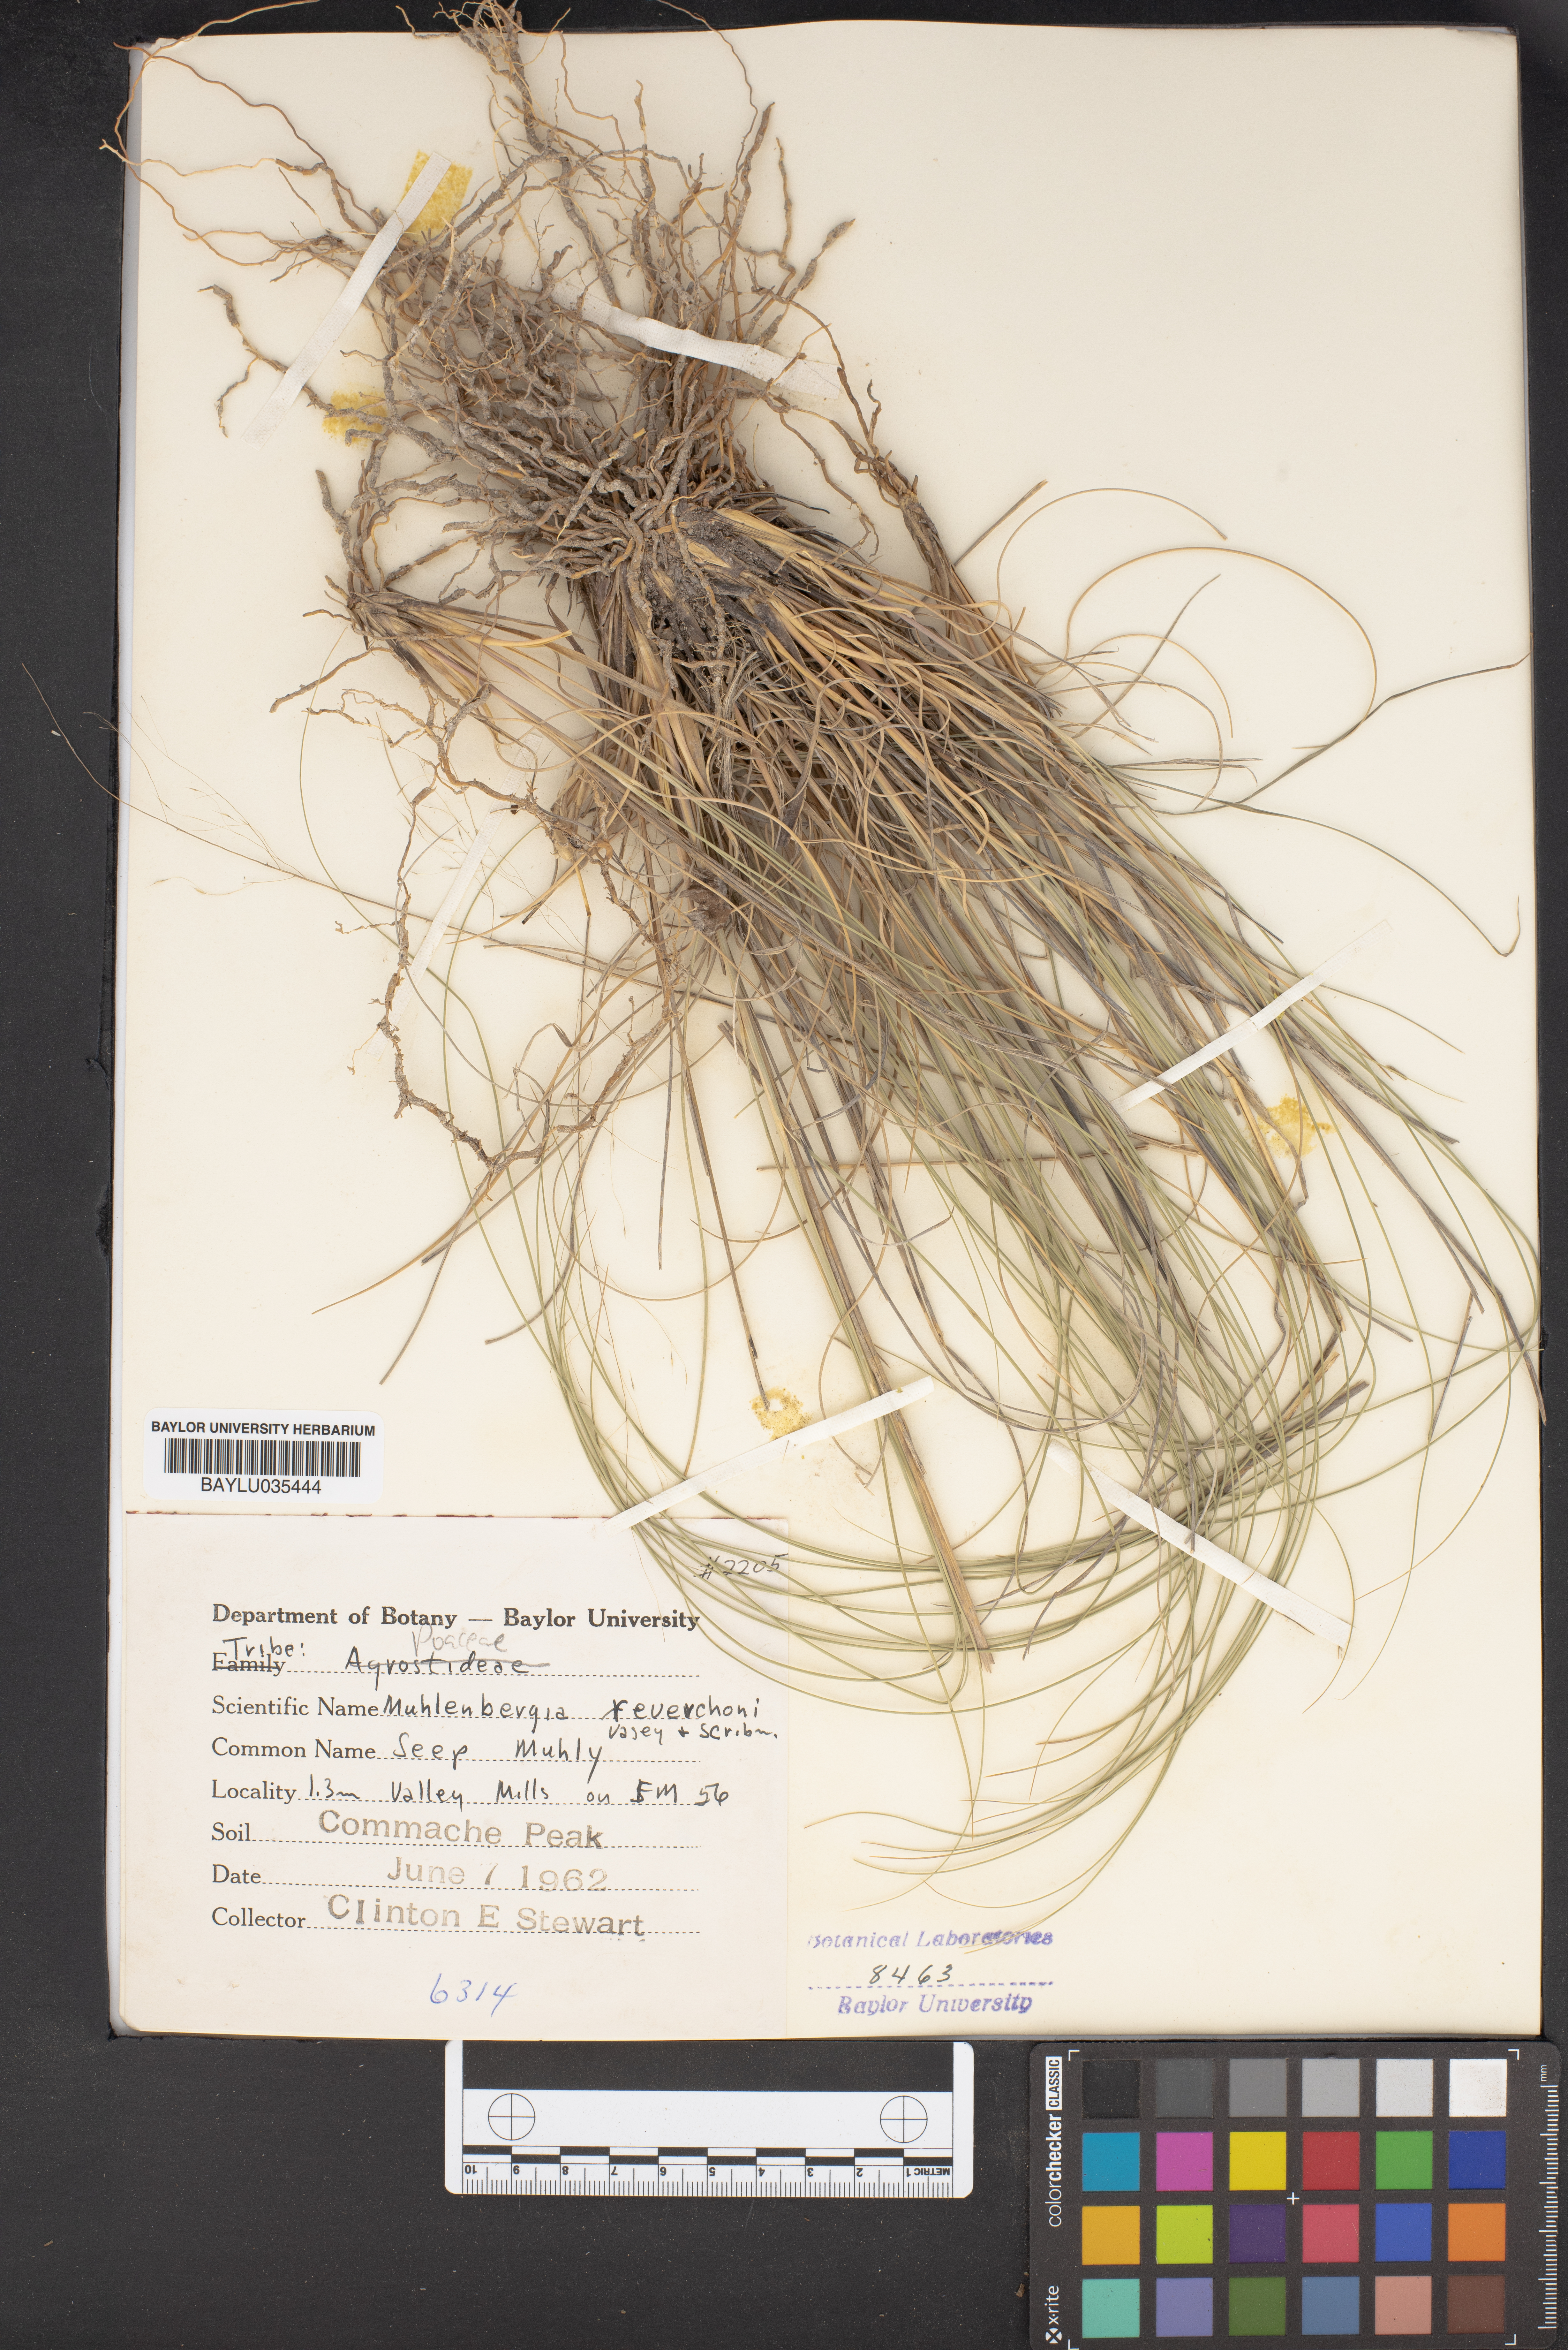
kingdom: Plantae
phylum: Tracheophyta
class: Liliopsida
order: Poales
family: Poaceae
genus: Muhlenbergia
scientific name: Muhlenbergia reverchonii
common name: Seep muhly
